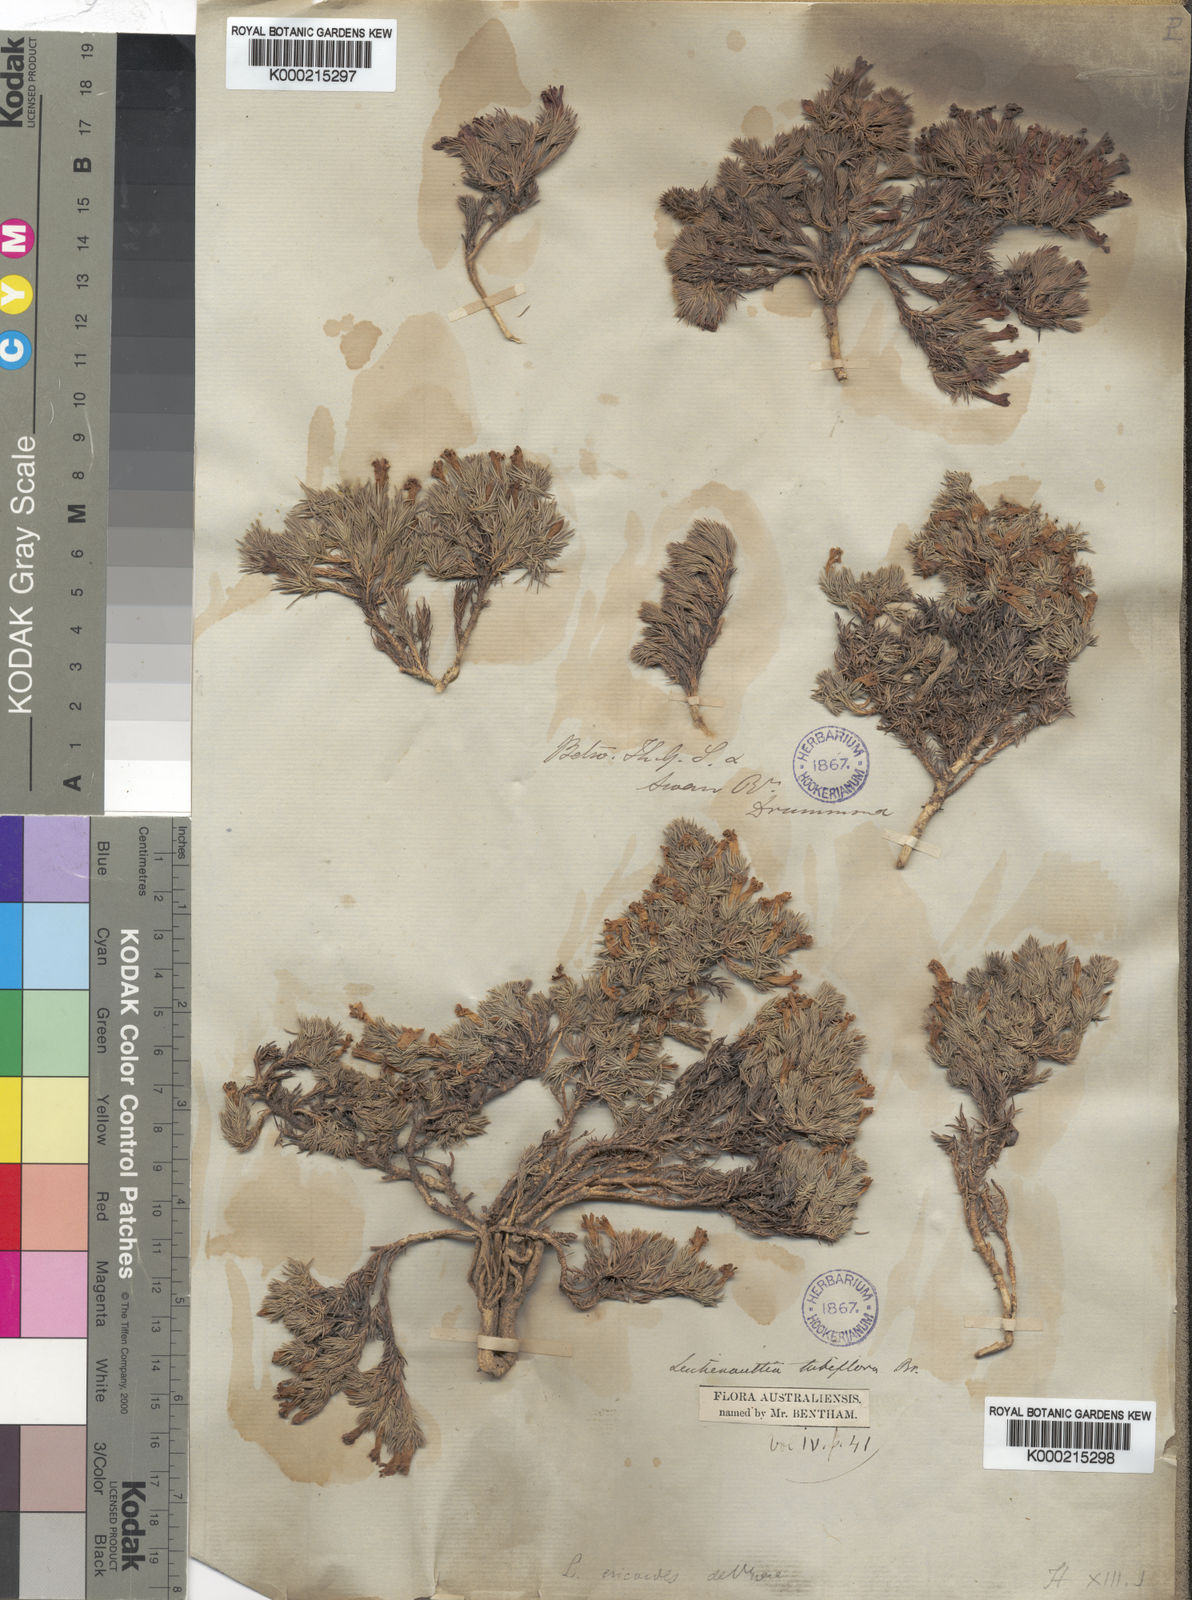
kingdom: Plantae
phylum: Tracheophyta
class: Magnoliopsida
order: Asterales
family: Goodeniaceae
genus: Leschenaultia
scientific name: Leschenaultia tubiflora
